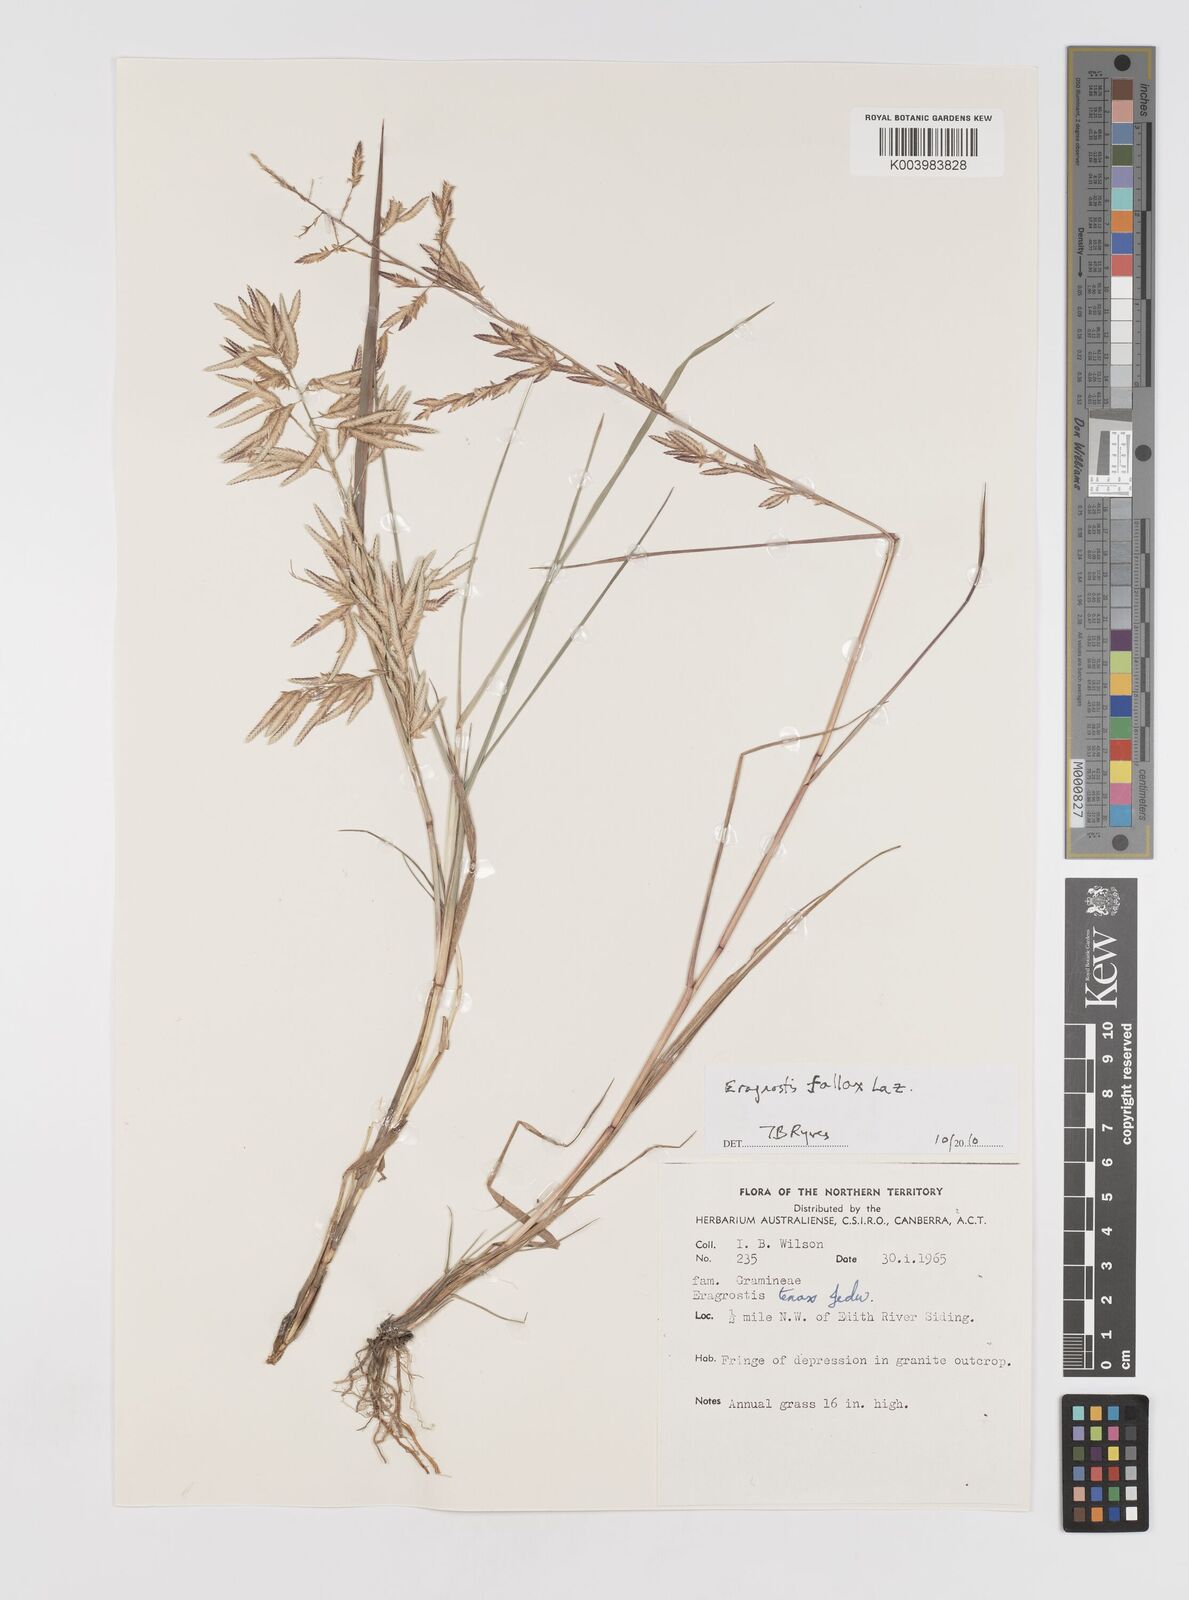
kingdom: Plantae
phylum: Tracheophyta
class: Liliopsida
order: Poales
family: Poaceae
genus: Eragrostis
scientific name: Eragrostis fallax
